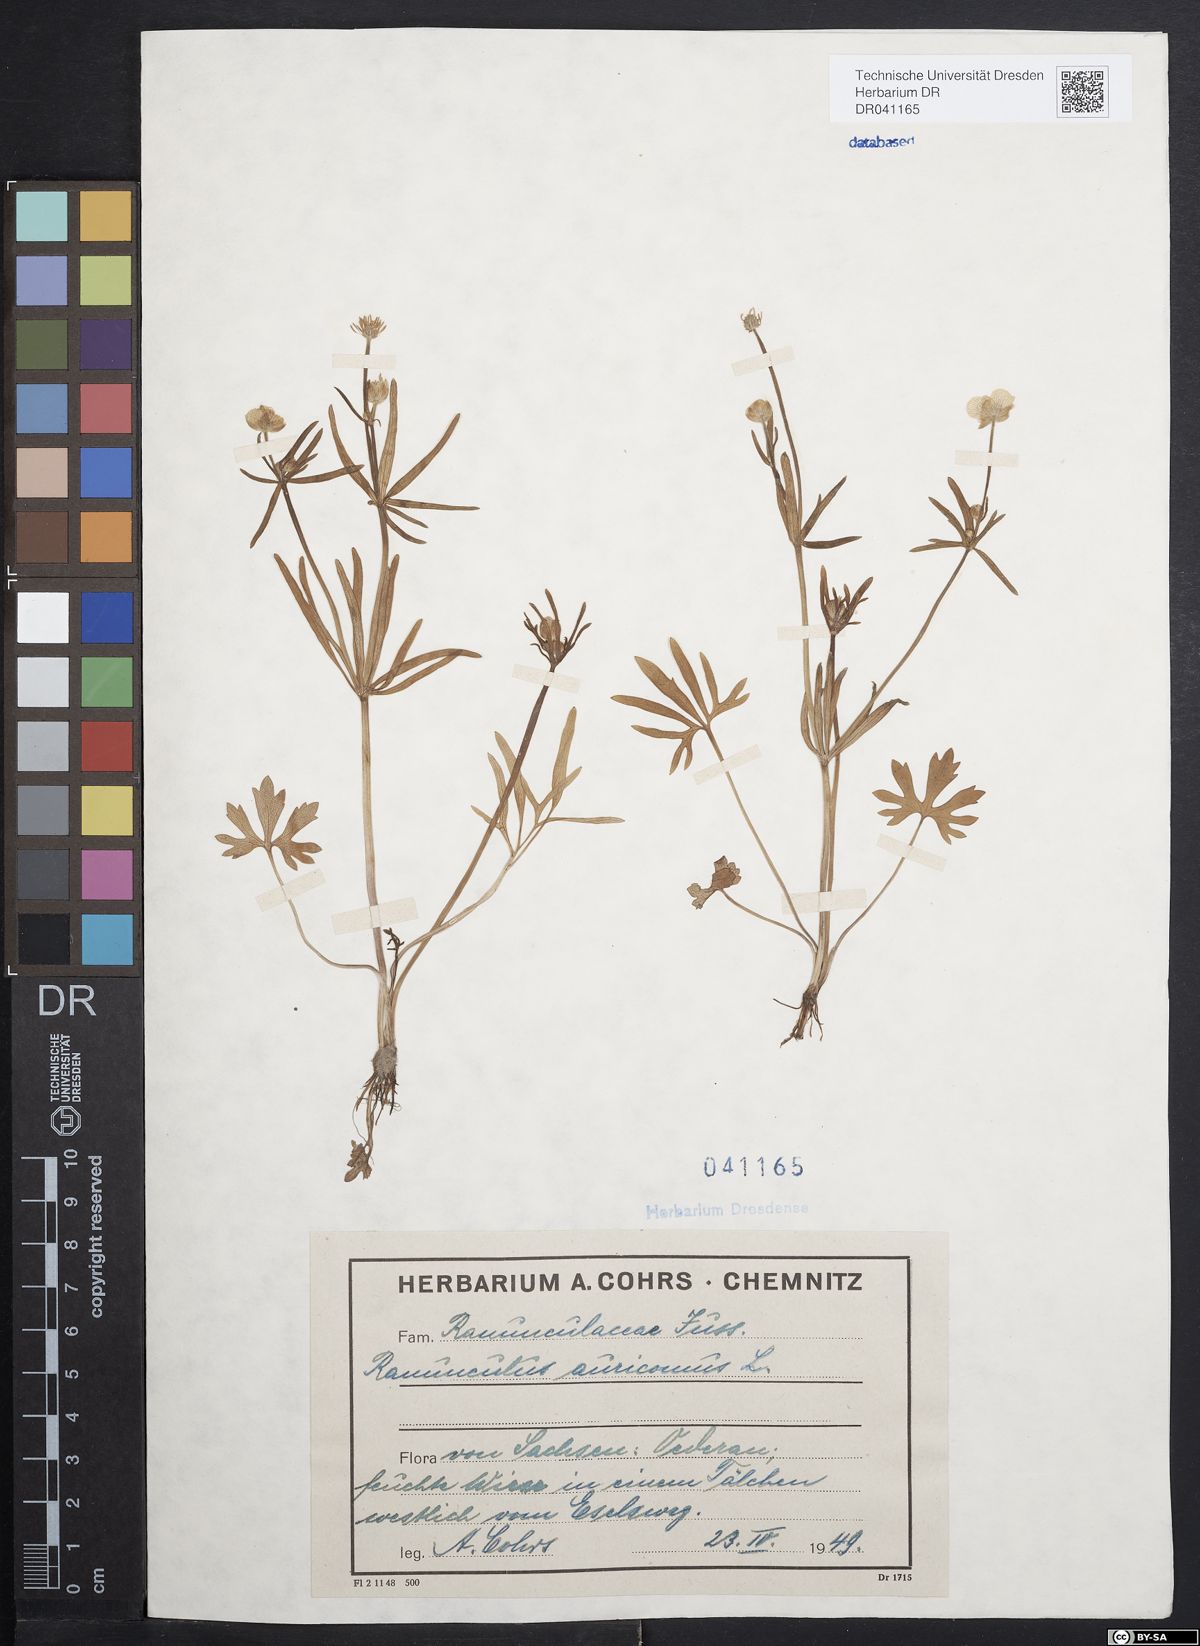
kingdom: Plantae
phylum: Tracheophyta
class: Magnoliopsida
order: Ranunculales
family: Ranunculaceae
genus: Ranunculus
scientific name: Ranunculus connivens
